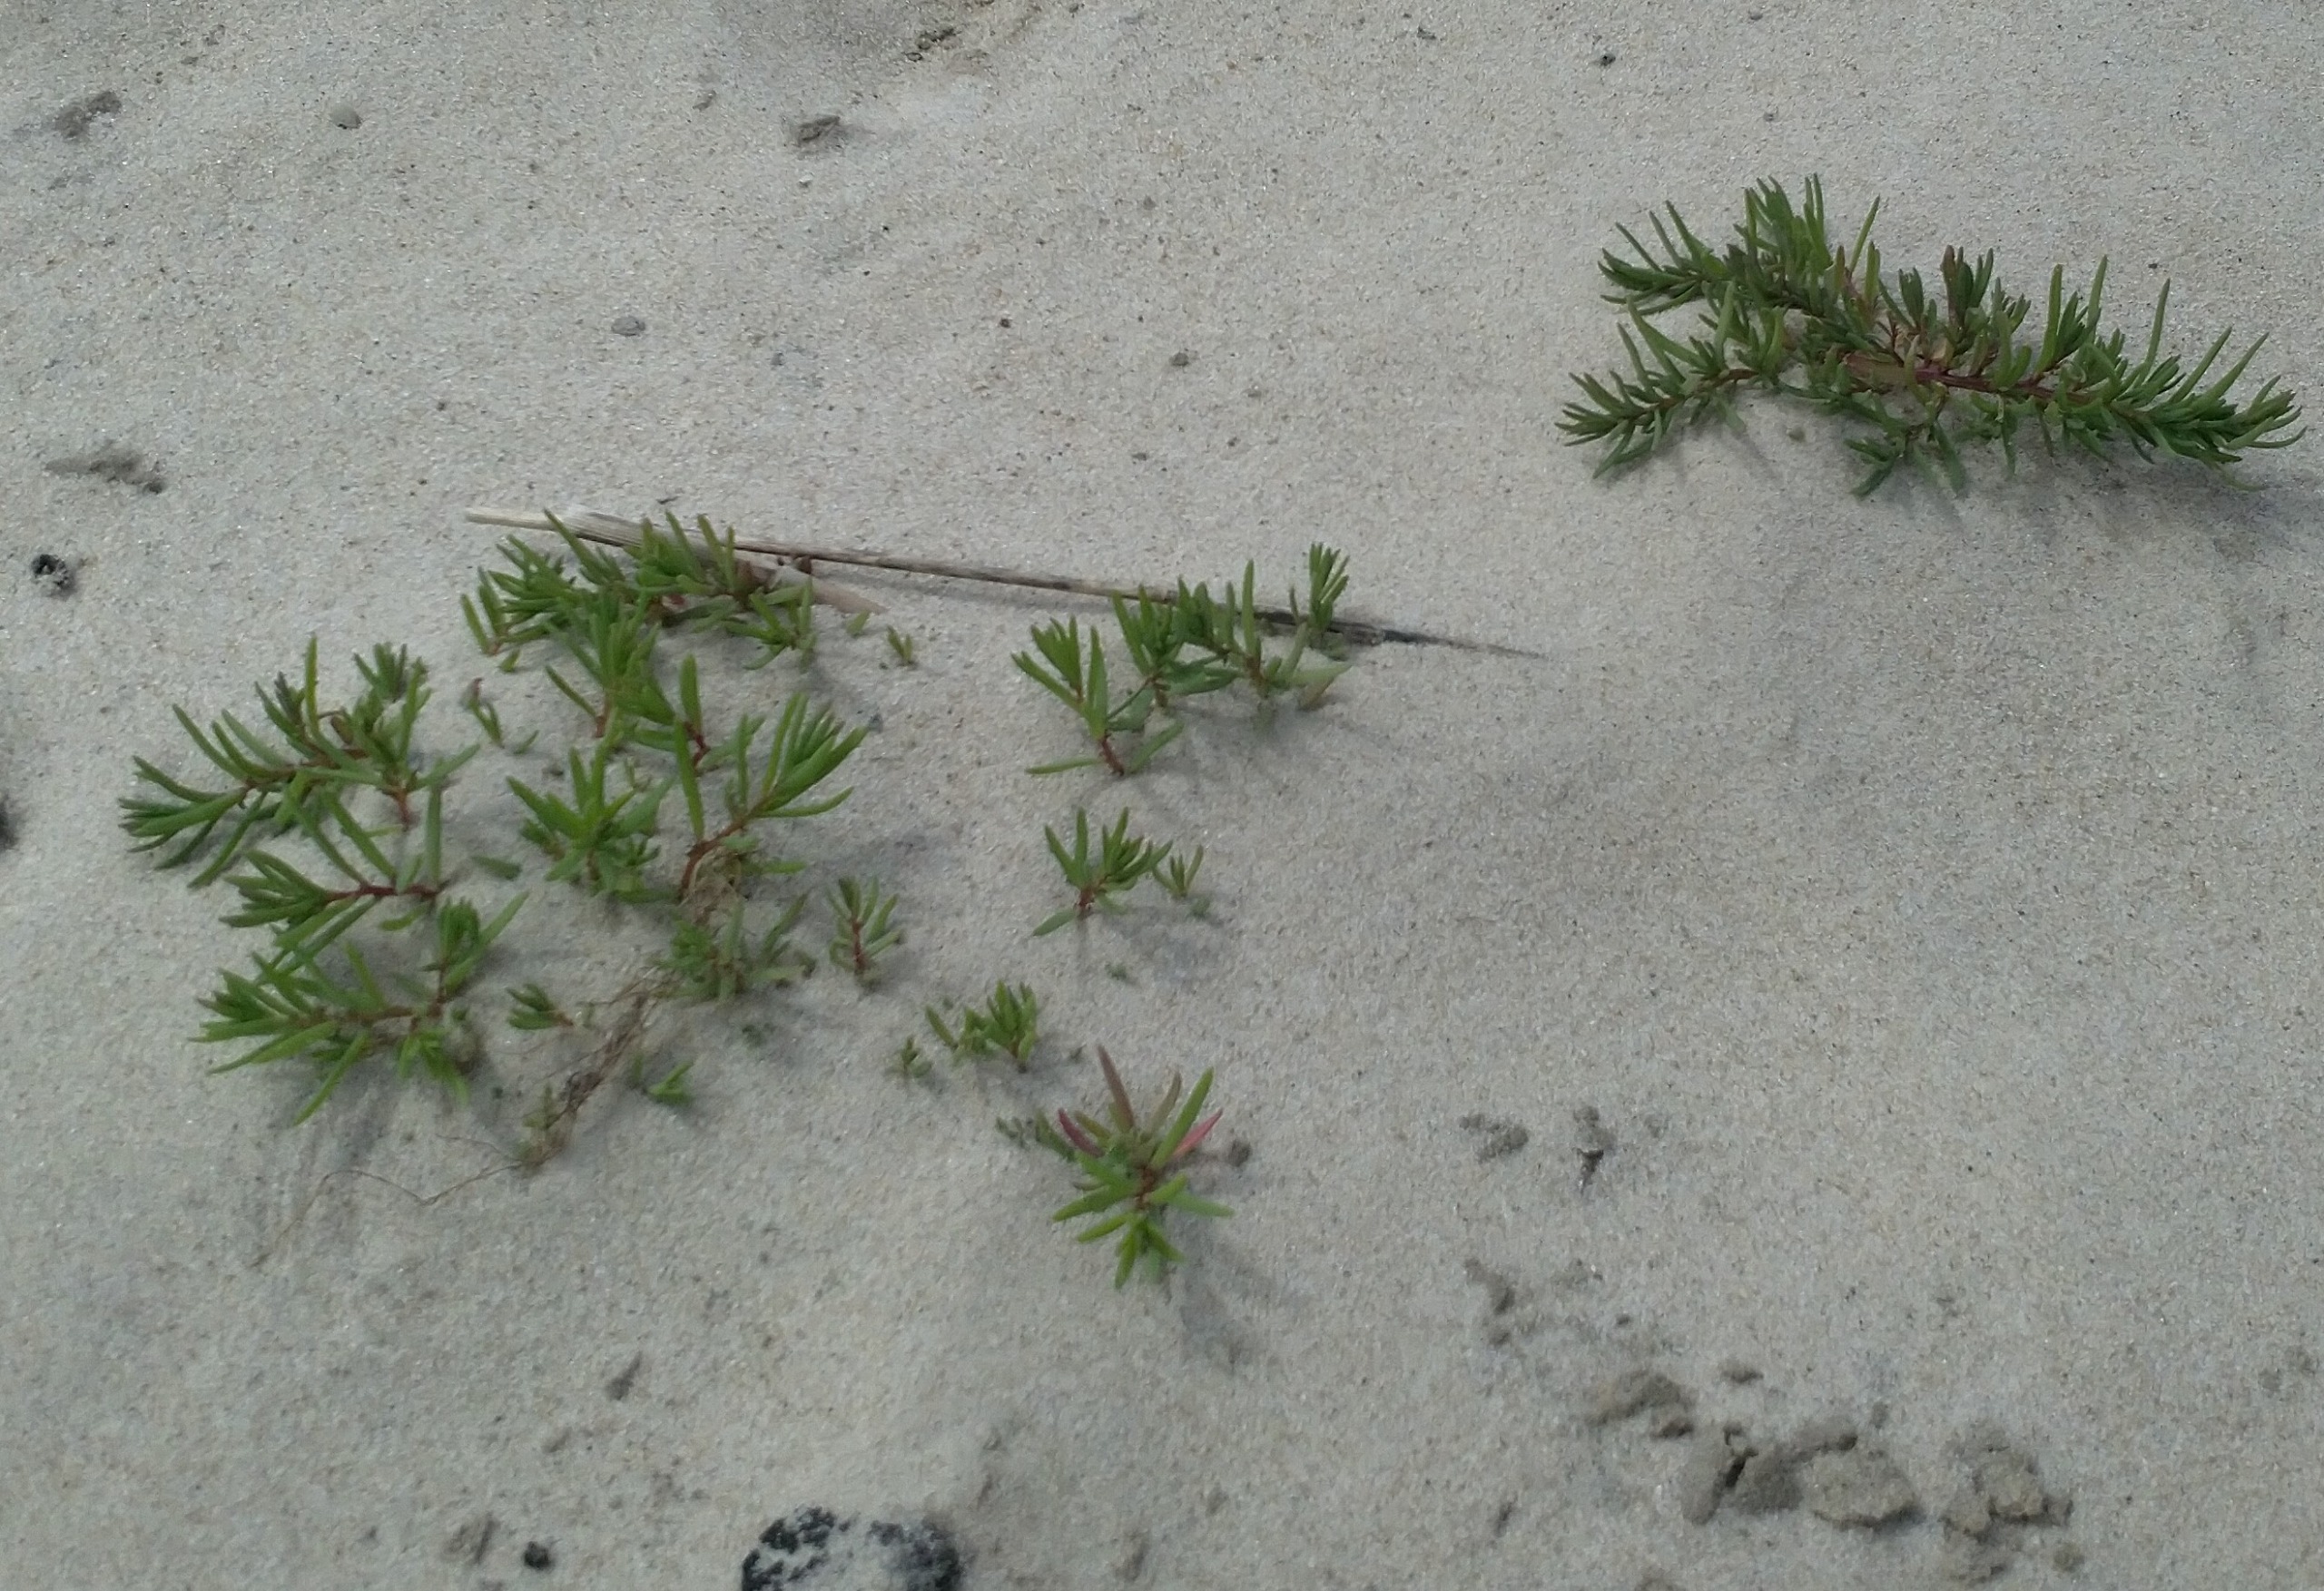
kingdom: Plantae
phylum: Tracheophyta
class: Magnoliopsida
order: Caryophyllales
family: Amaranthaceae
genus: Suaeda
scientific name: Suaeda maritima
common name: Strandgåsefod
